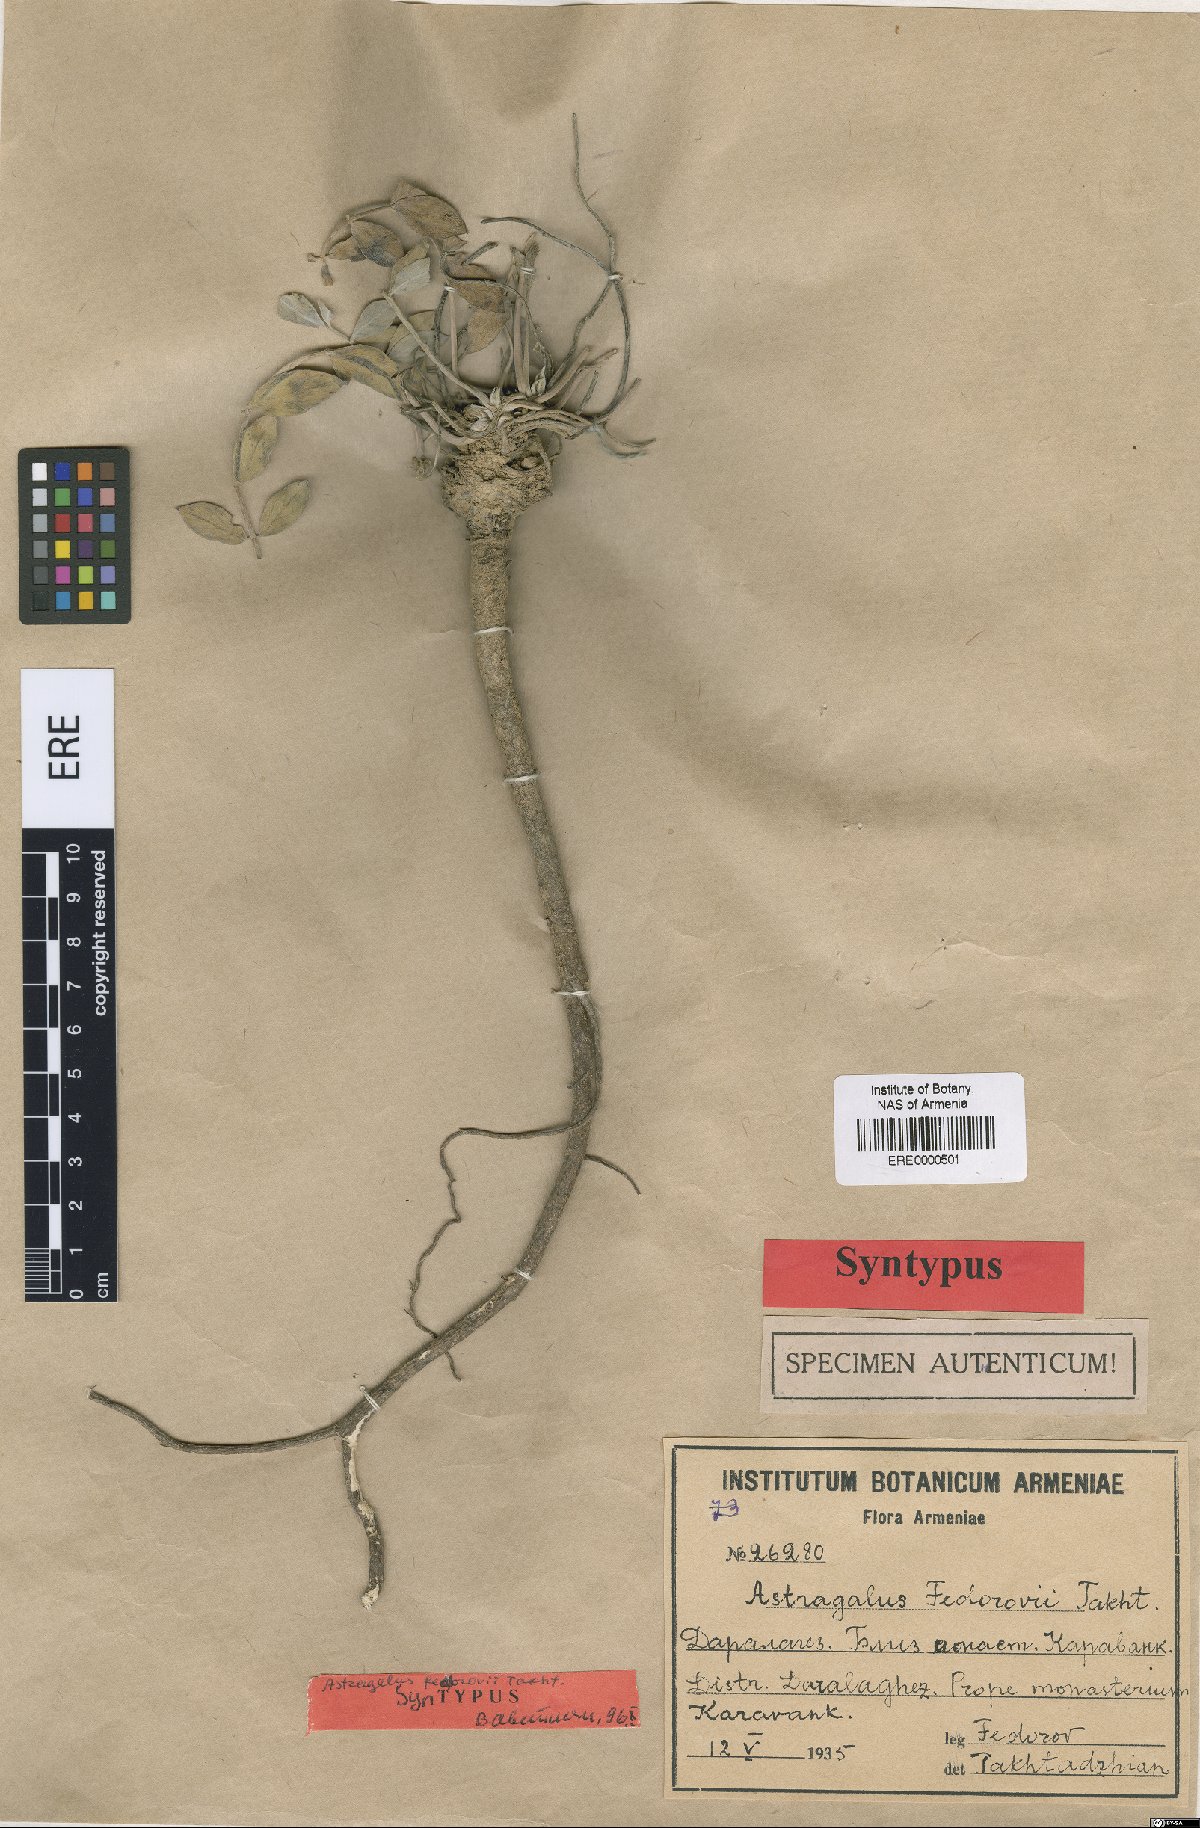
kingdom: Plantae
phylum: Tracheophyta
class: Magnoliopsida
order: Fabales
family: Fabaceae
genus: Astragalus
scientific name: Astragalus latifolius
